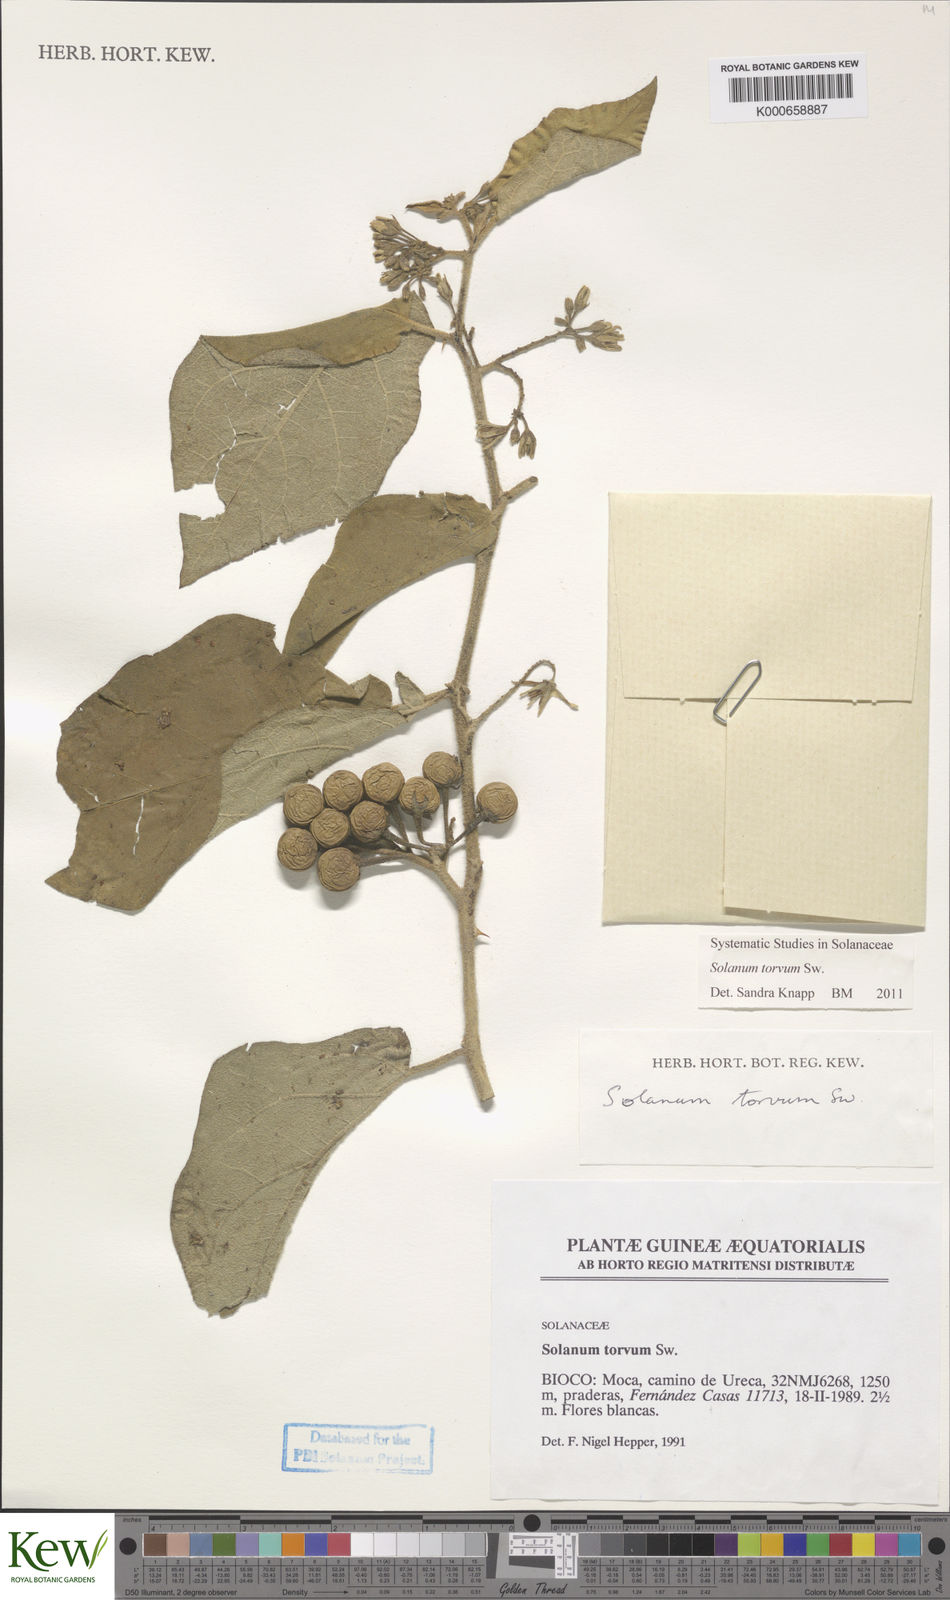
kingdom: Plantae
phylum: Tracheophyta
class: Magnoliopsida
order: Solanales
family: Solanaceae
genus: Solanum
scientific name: Solanum torvum
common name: Turkey berry
